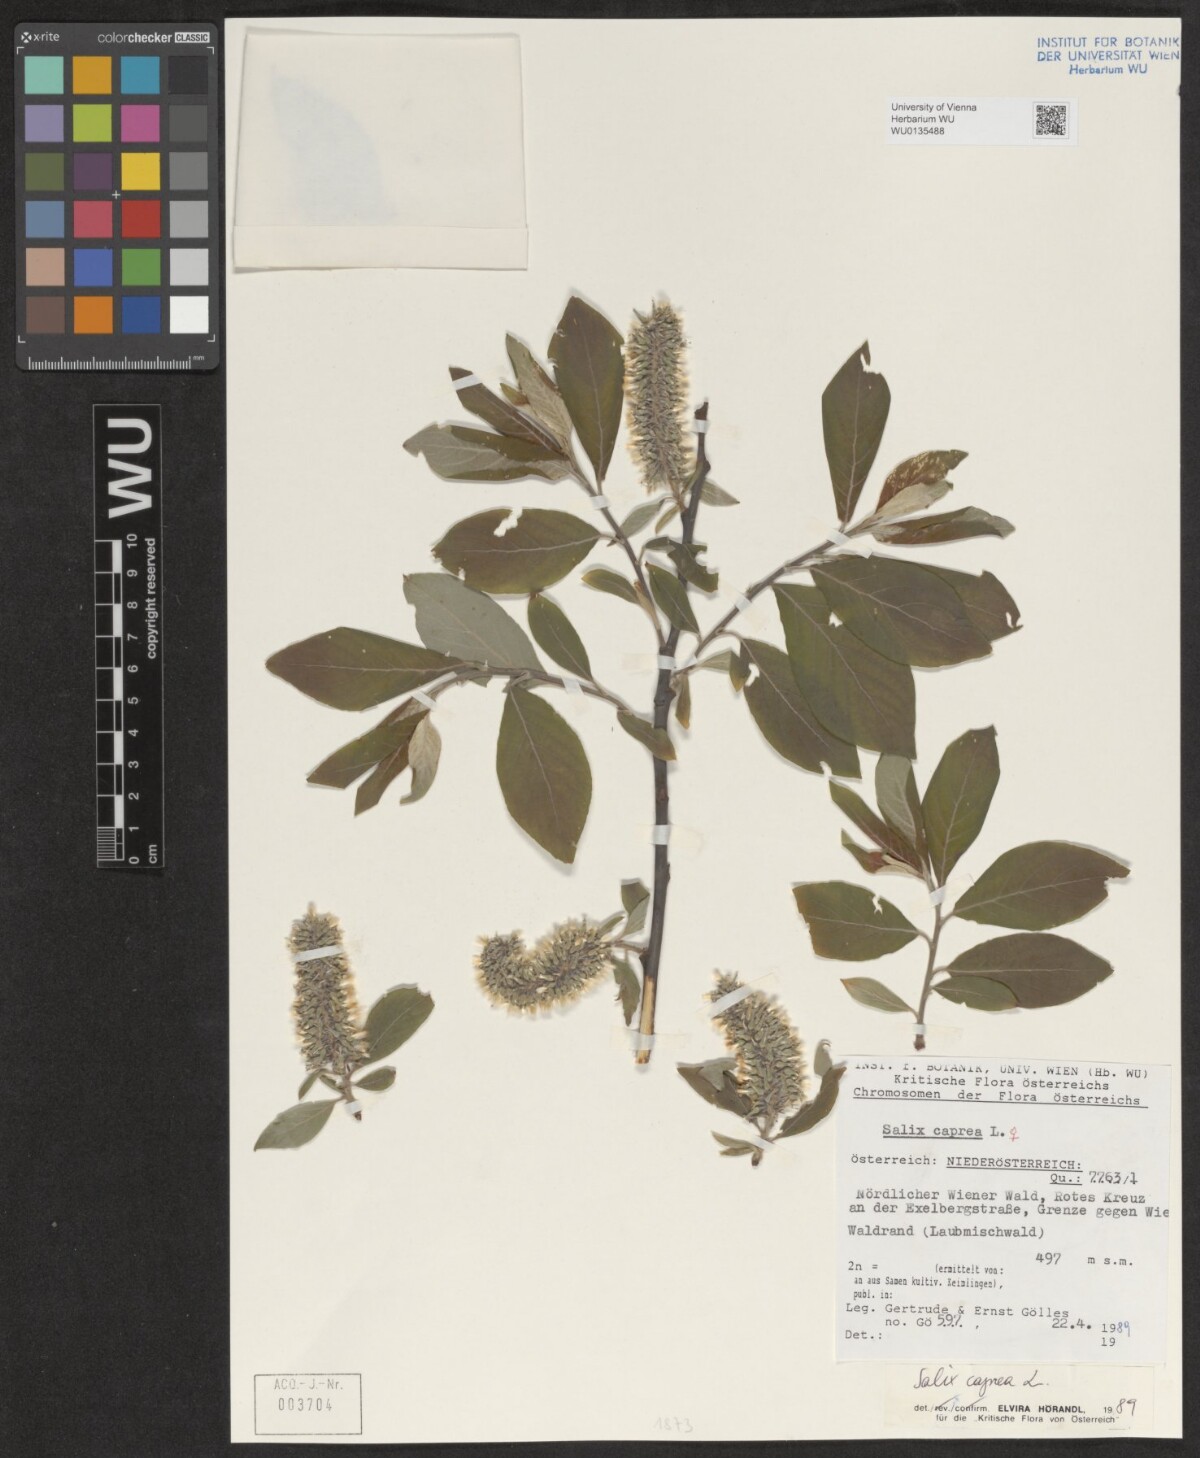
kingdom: Plantae
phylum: Tracheophyta
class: Magnoliopsida
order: Malpighiales
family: Salicaceae
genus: Salix
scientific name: Salix caprea
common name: Goat willow
